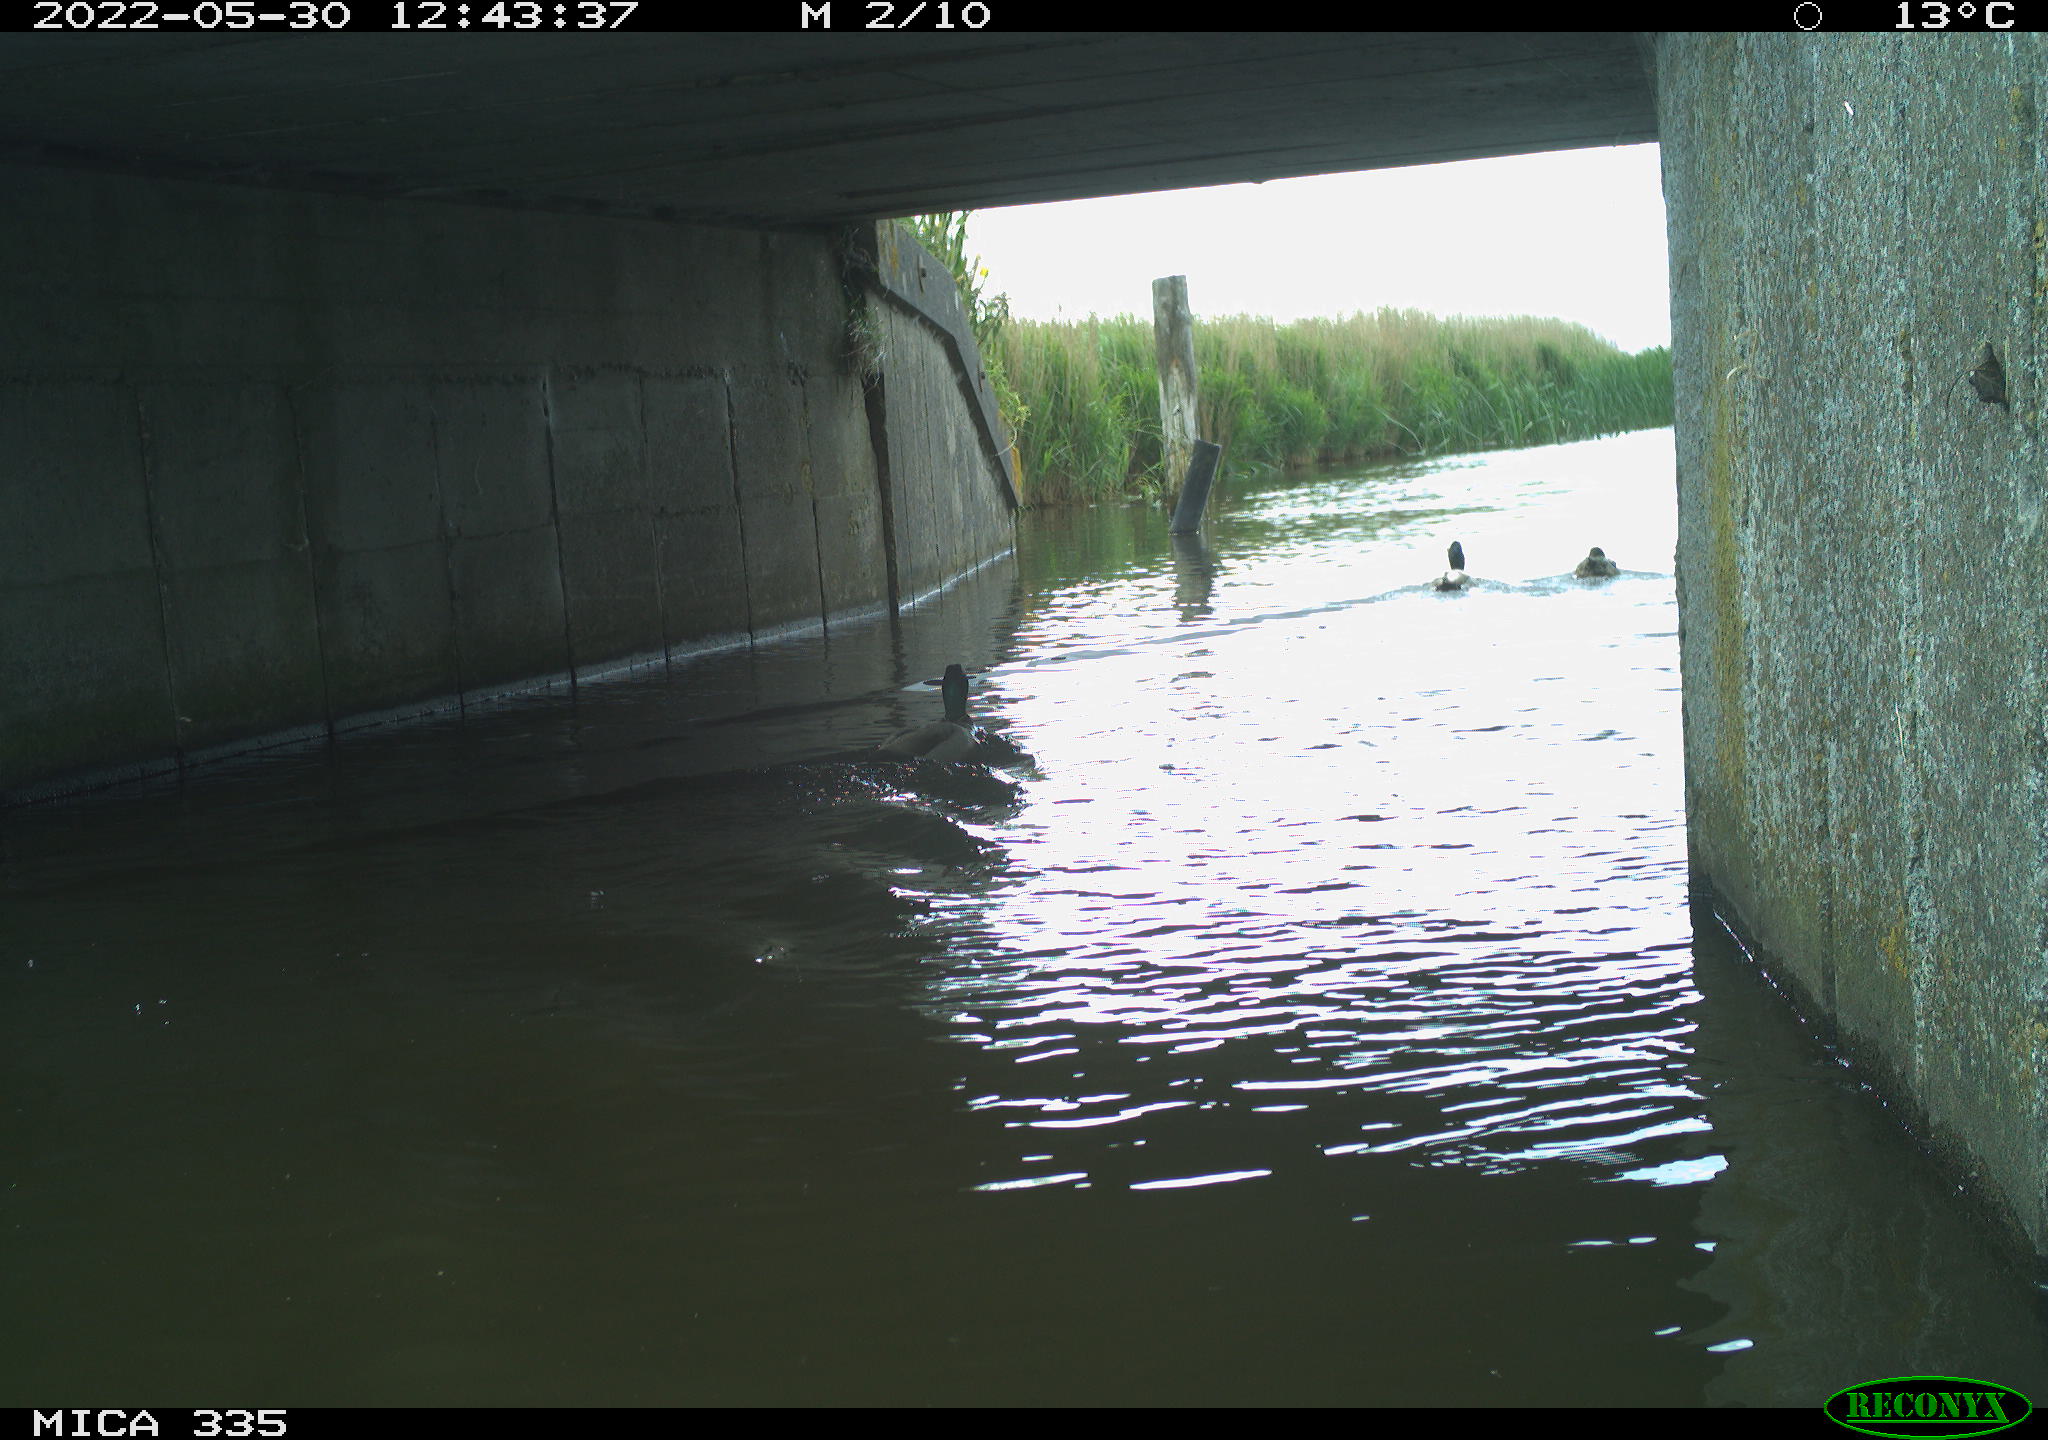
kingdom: Animalia
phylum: Chordata
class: Aves
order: Anseriformes
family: Anatidae
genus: Anas
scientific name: Anas platyrhynchos
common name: Mallard
